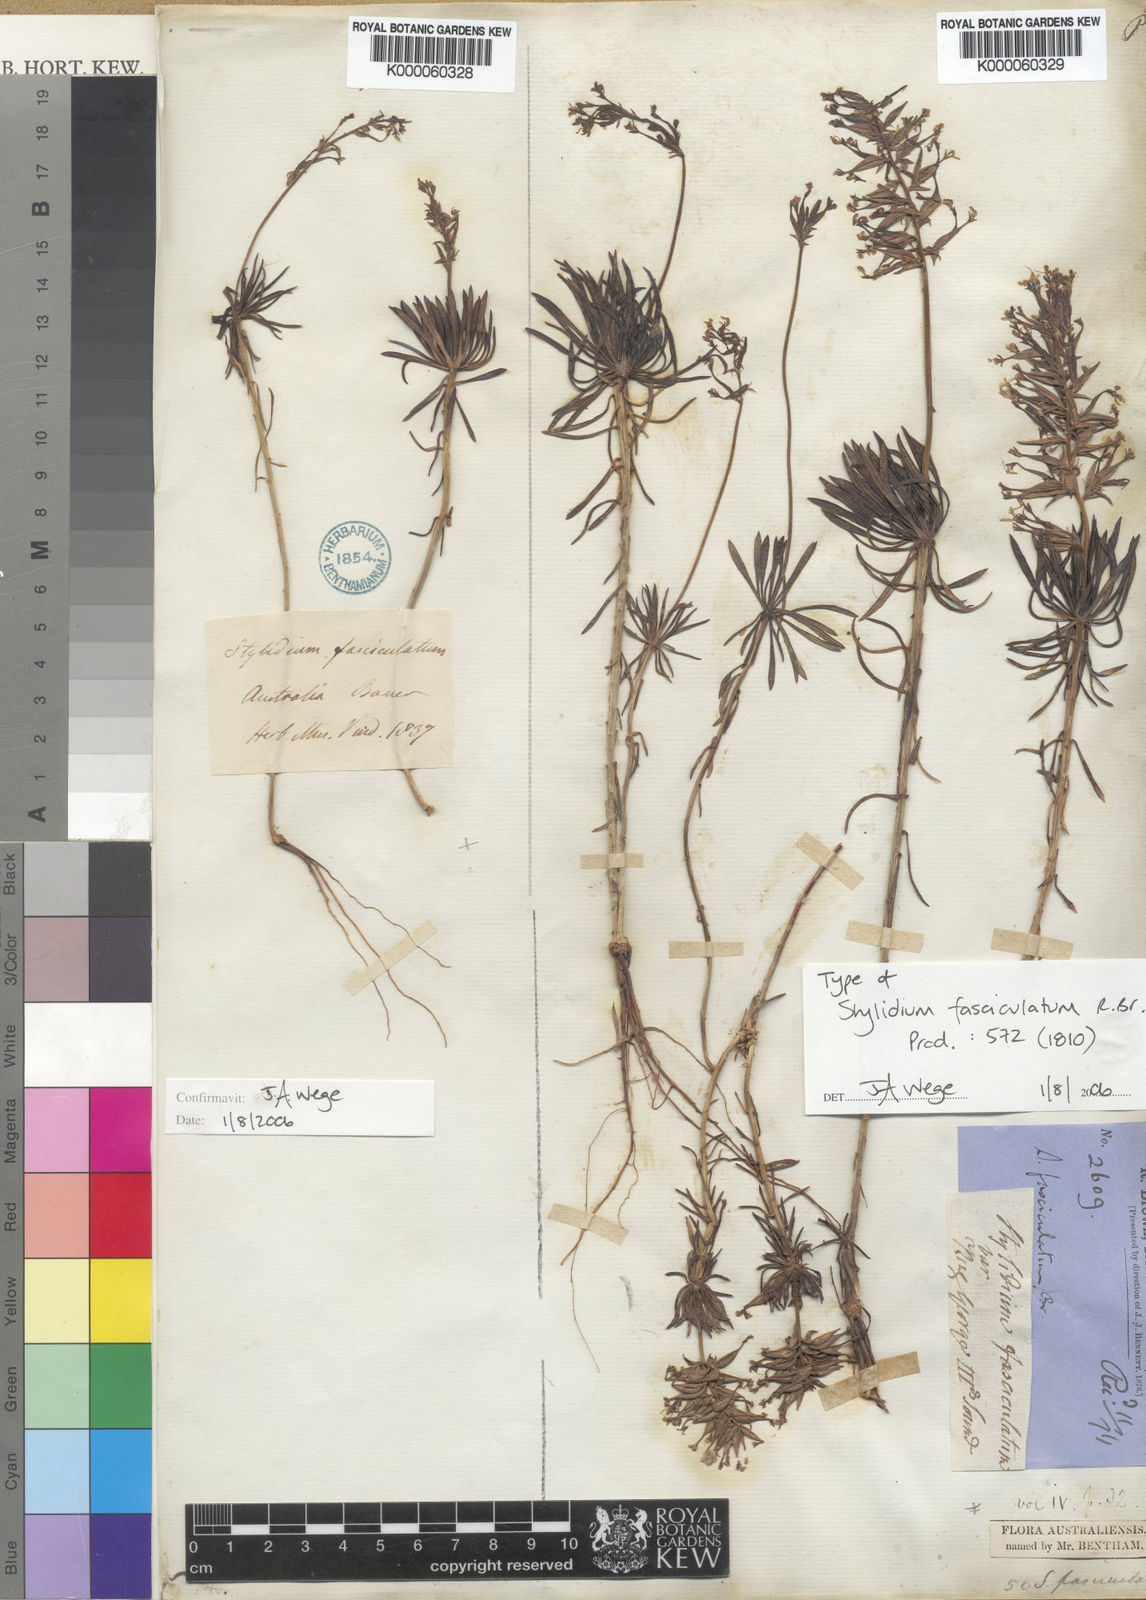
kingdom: Plantae
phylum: Tracheophyta
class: Magnoliopsida
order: Asterales
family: Stylidiaceae
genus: Stylidium
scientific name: Stylidium fasciculatum
